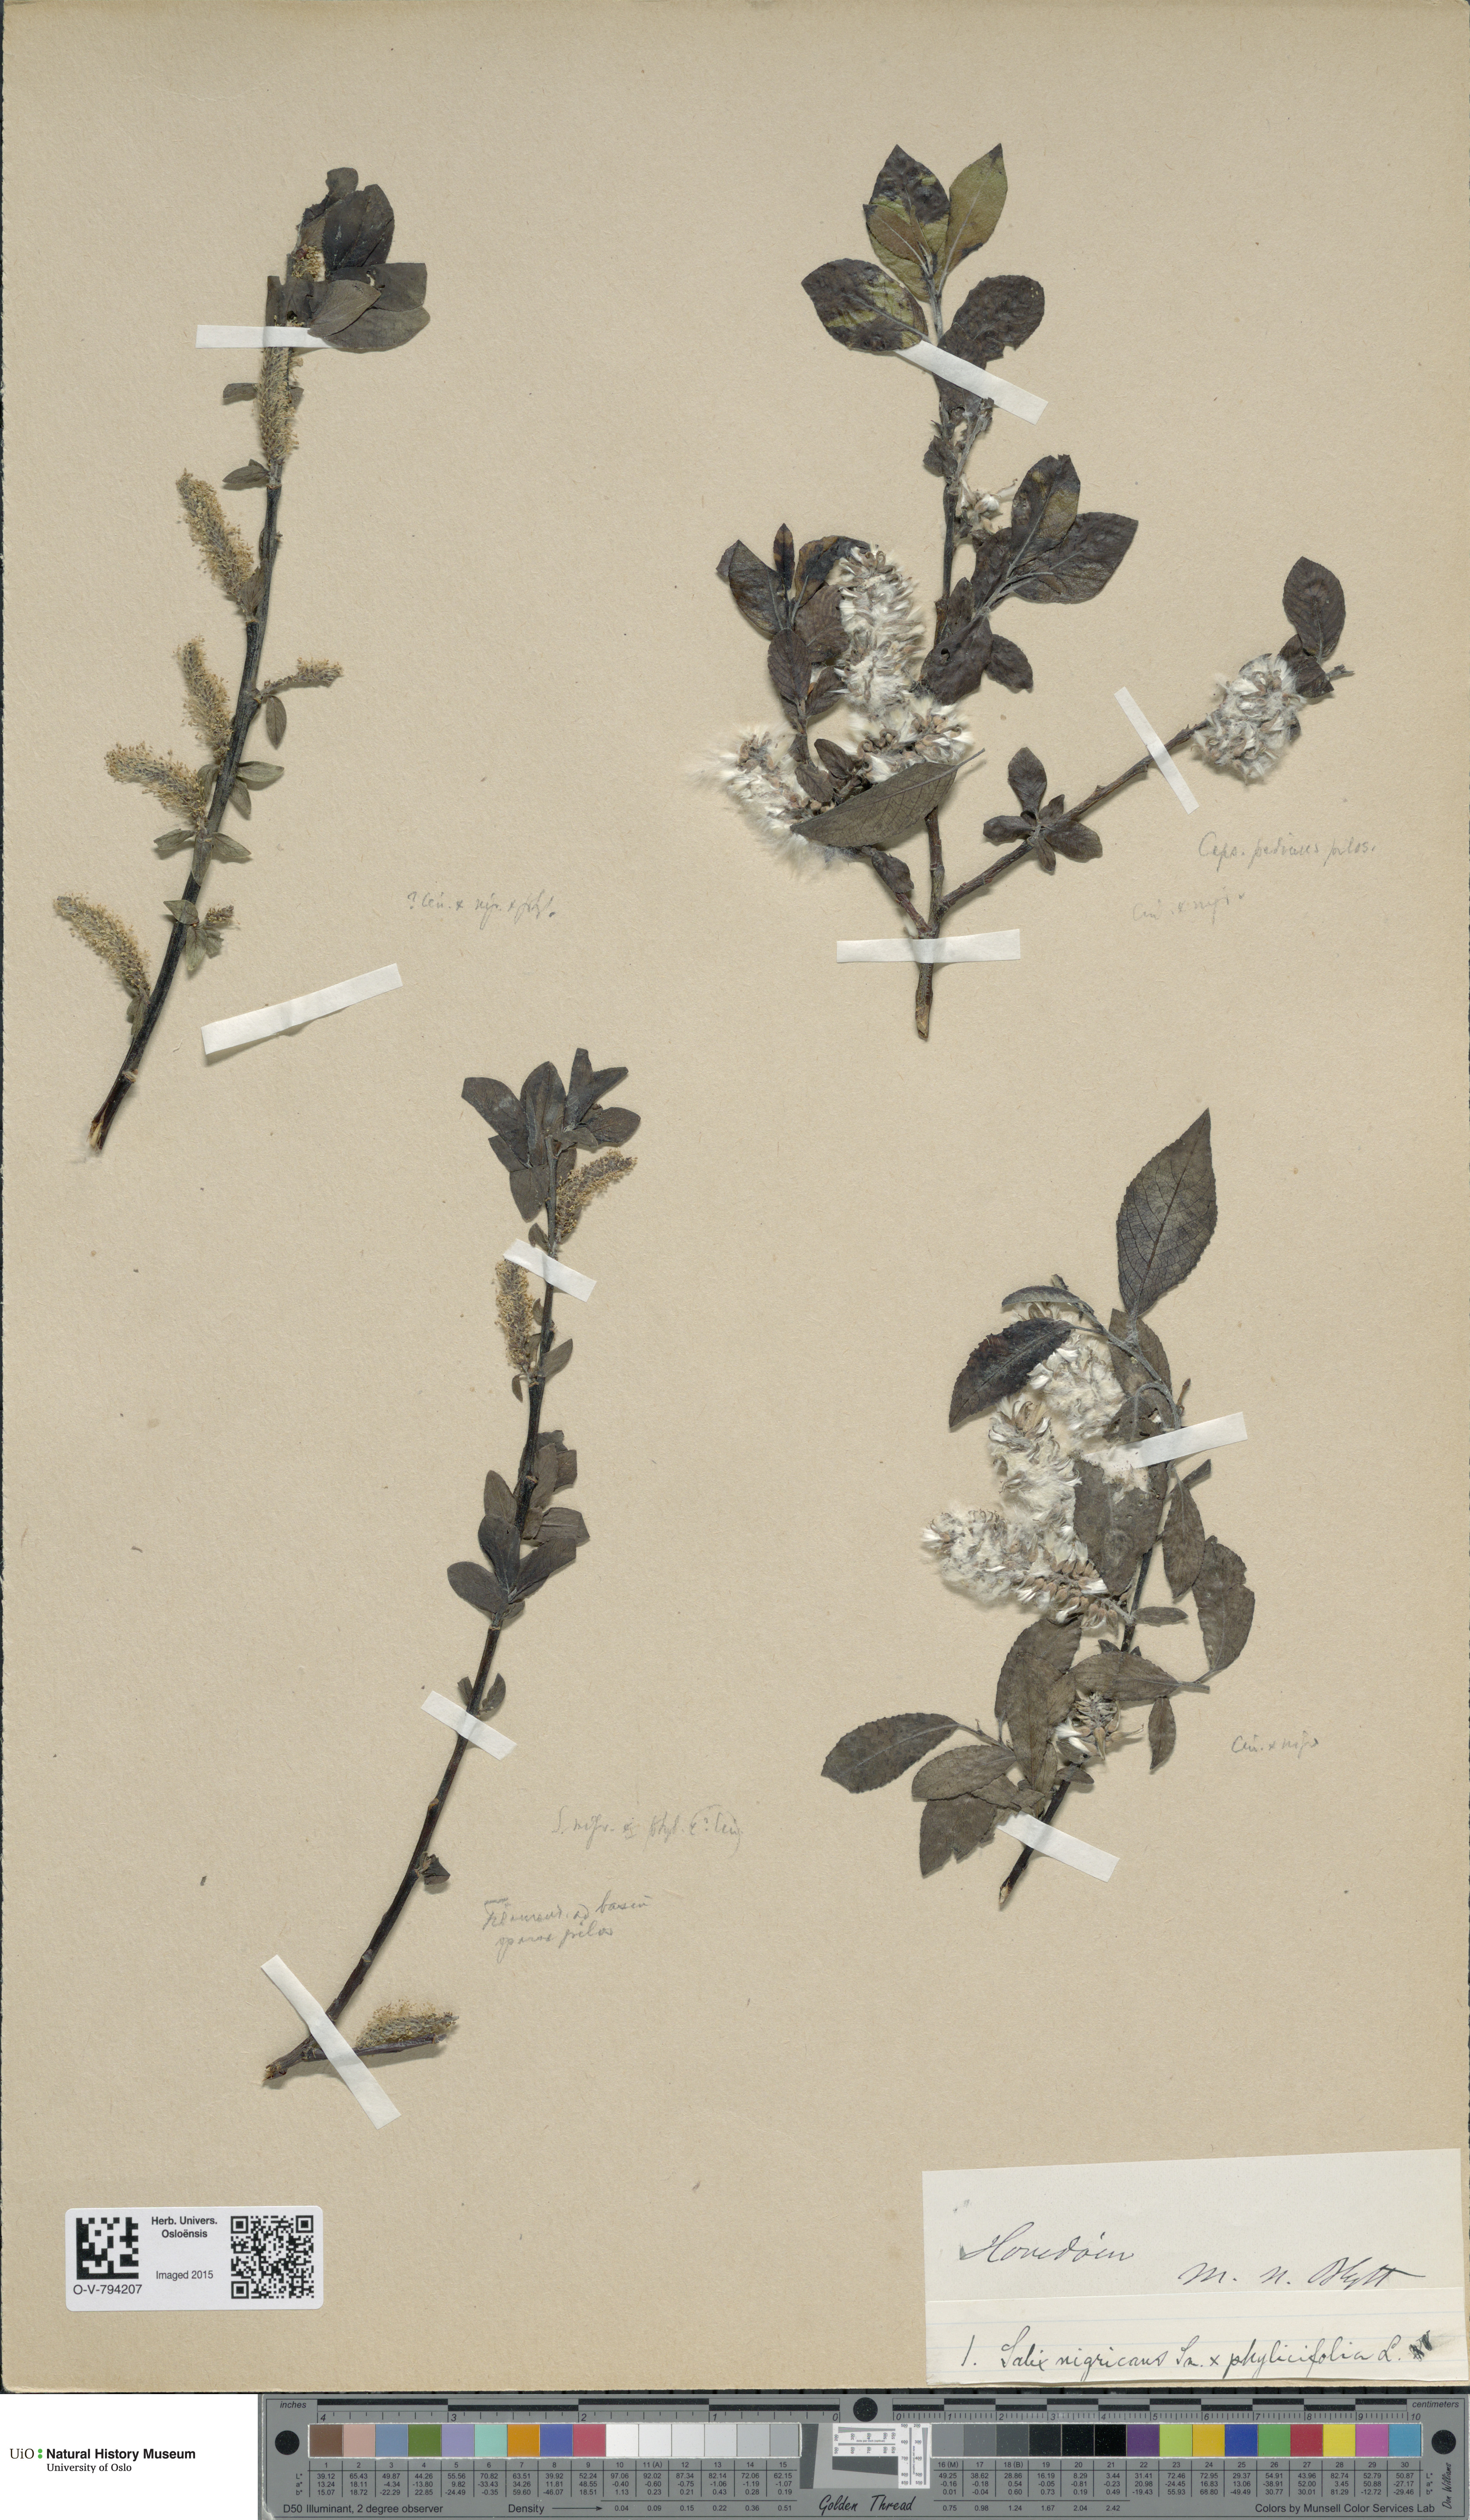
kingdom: Plantae
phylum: Tracheophyta
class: Magnoliopsida
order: Malpighiales
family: Salicaceae
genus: Salix
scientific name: Salix
